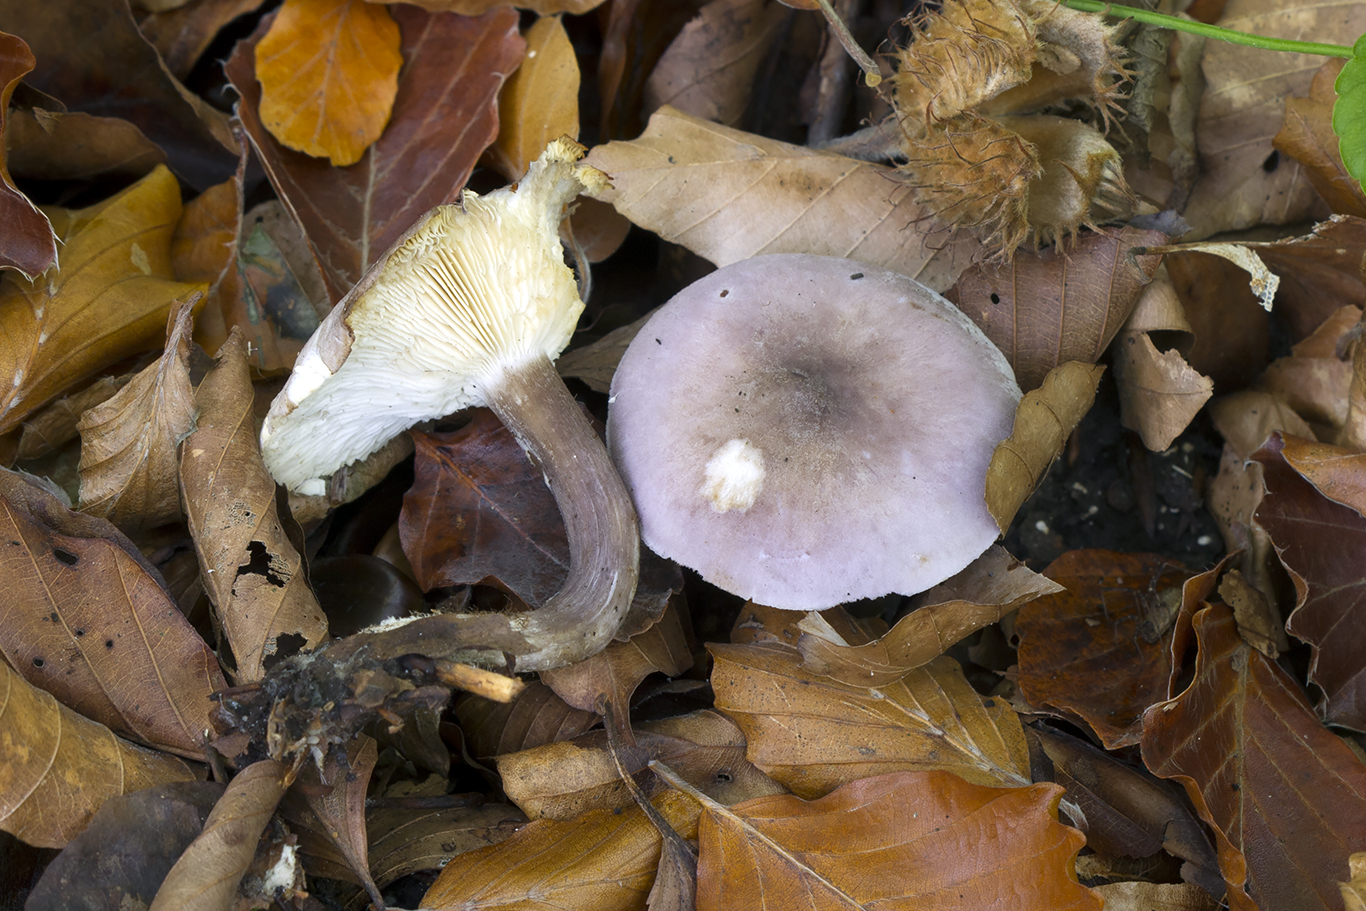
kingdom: Fungi
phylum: Basidiomycota
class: Agaricomycetes
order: Agaricales
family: Lyophyllaceae
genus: Calocybe
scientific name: Calocybe ionides
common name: violblå fagerhat
